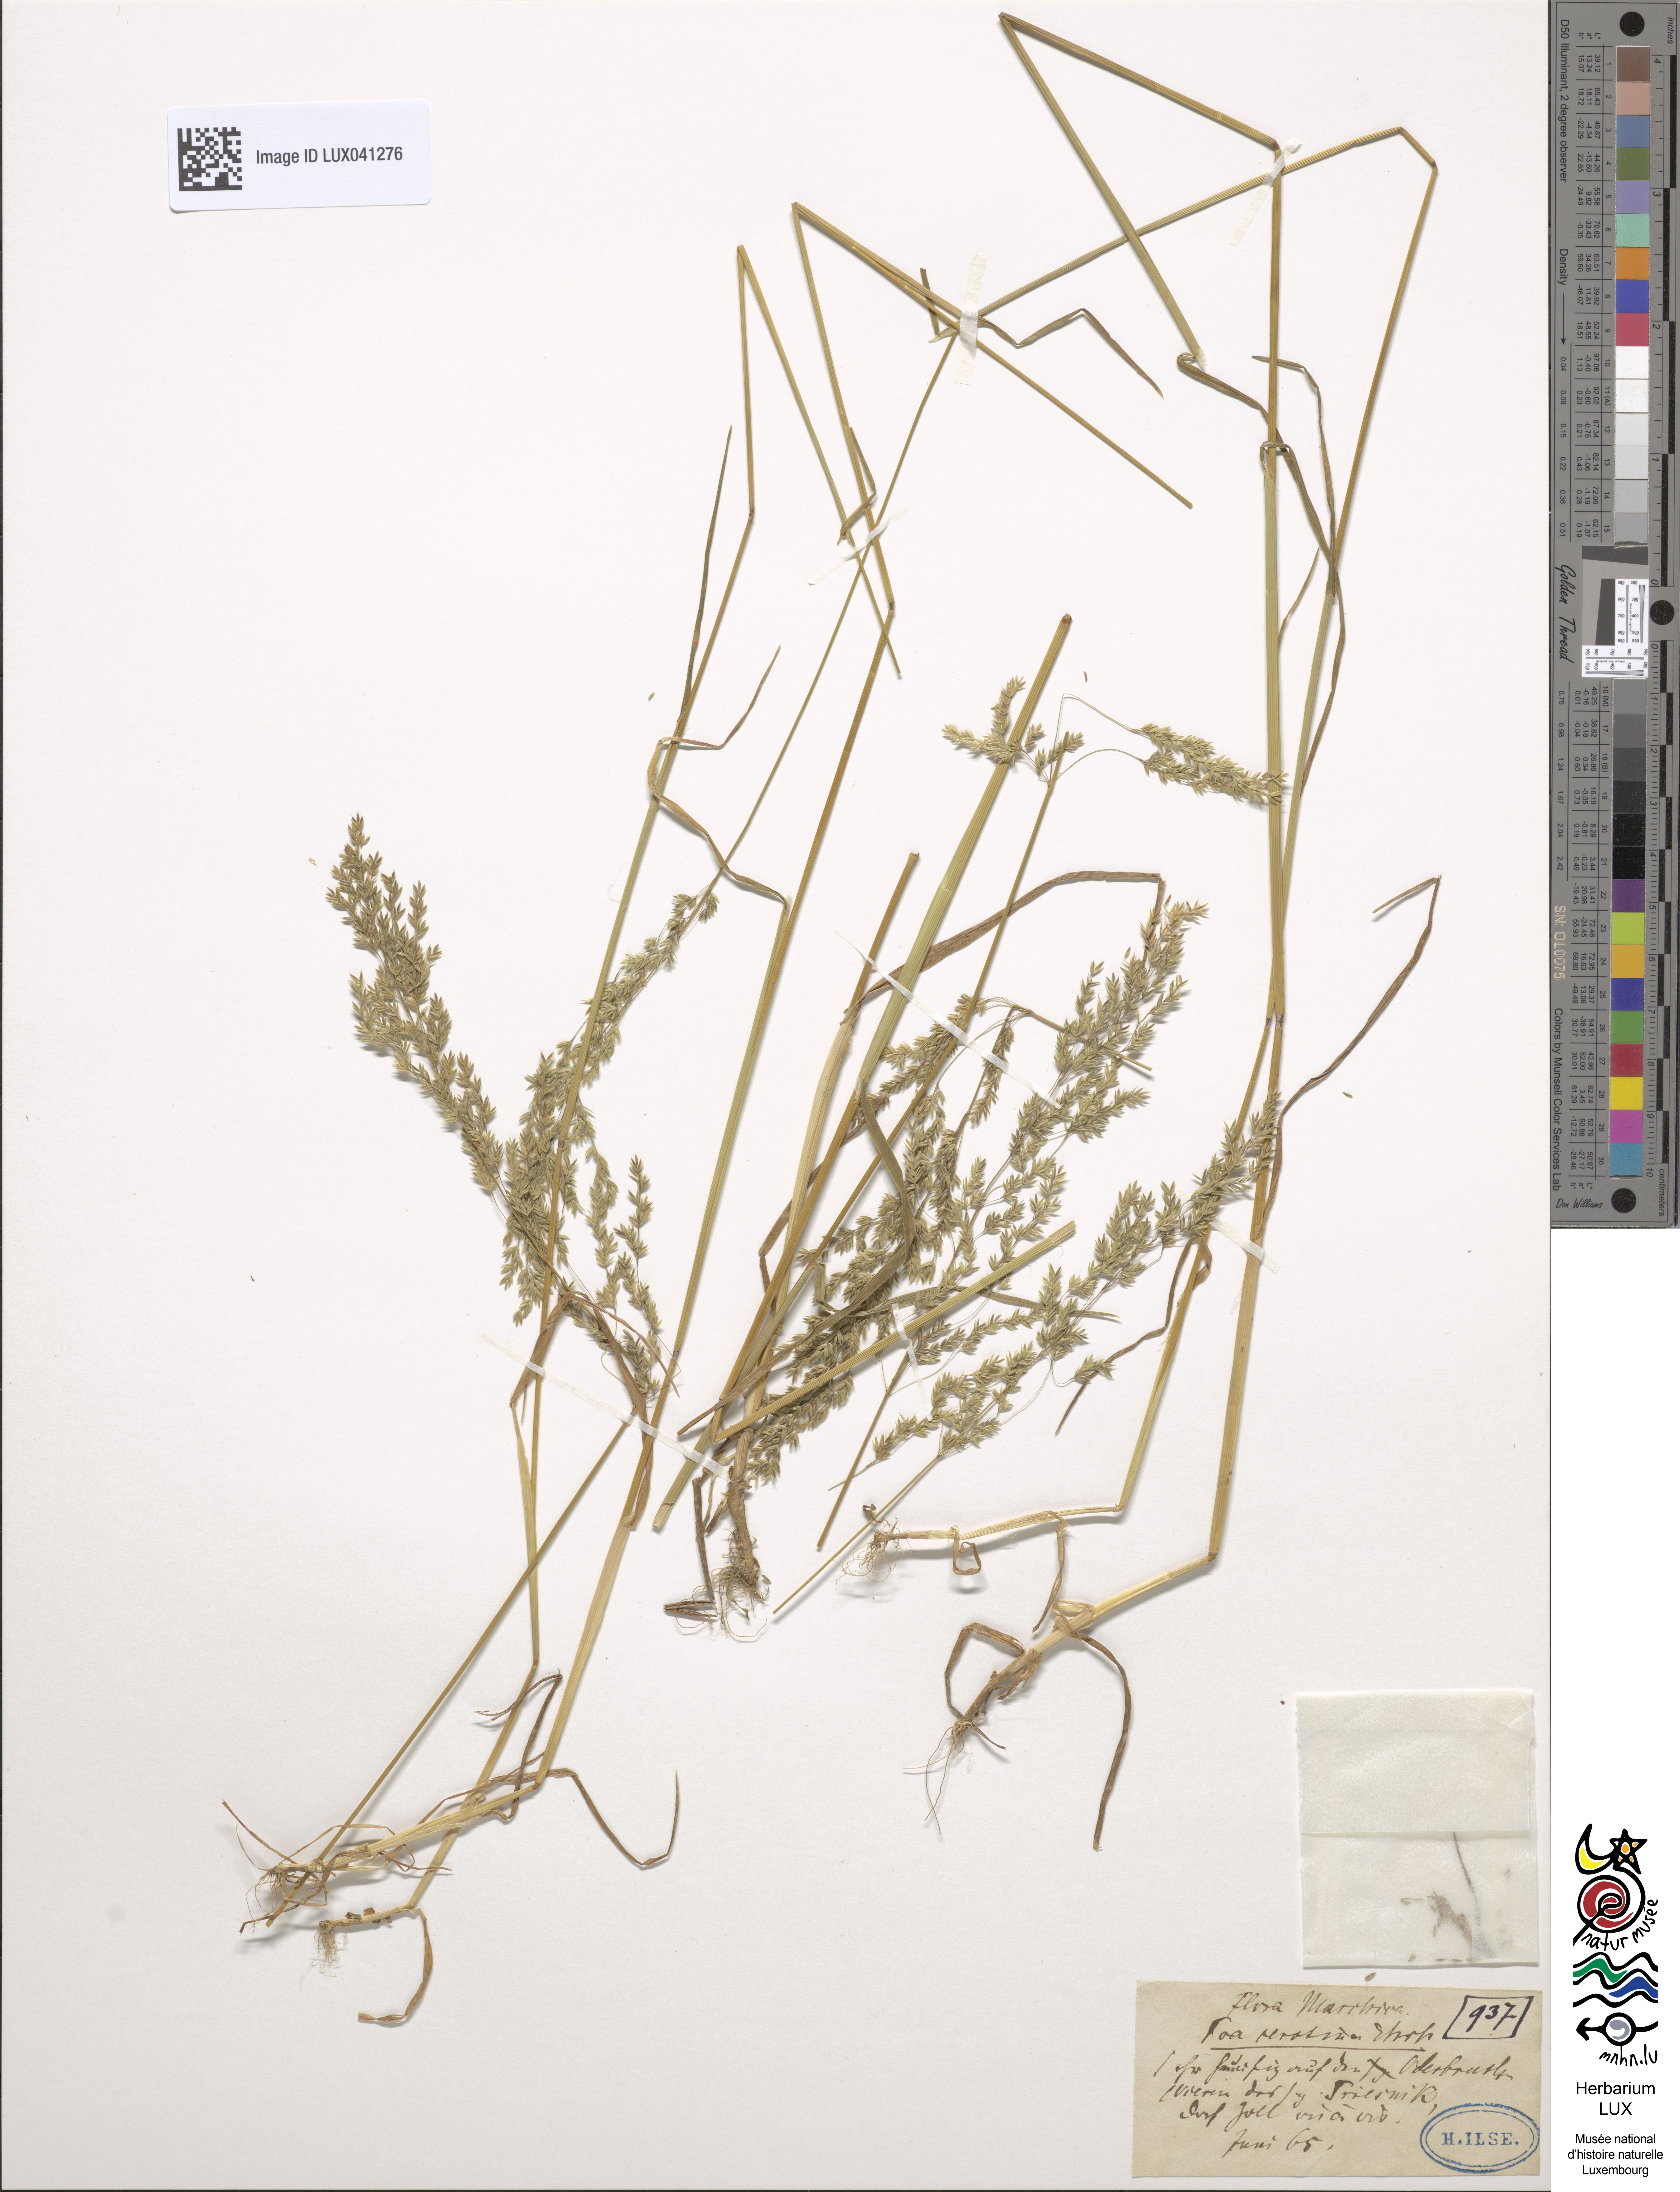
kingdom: Plantae
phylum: Tracheophyta
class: Liliopsida
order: Poales
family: Poaceae
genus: Poa
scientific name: Poa palustris
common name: Swamp meadow-grass
